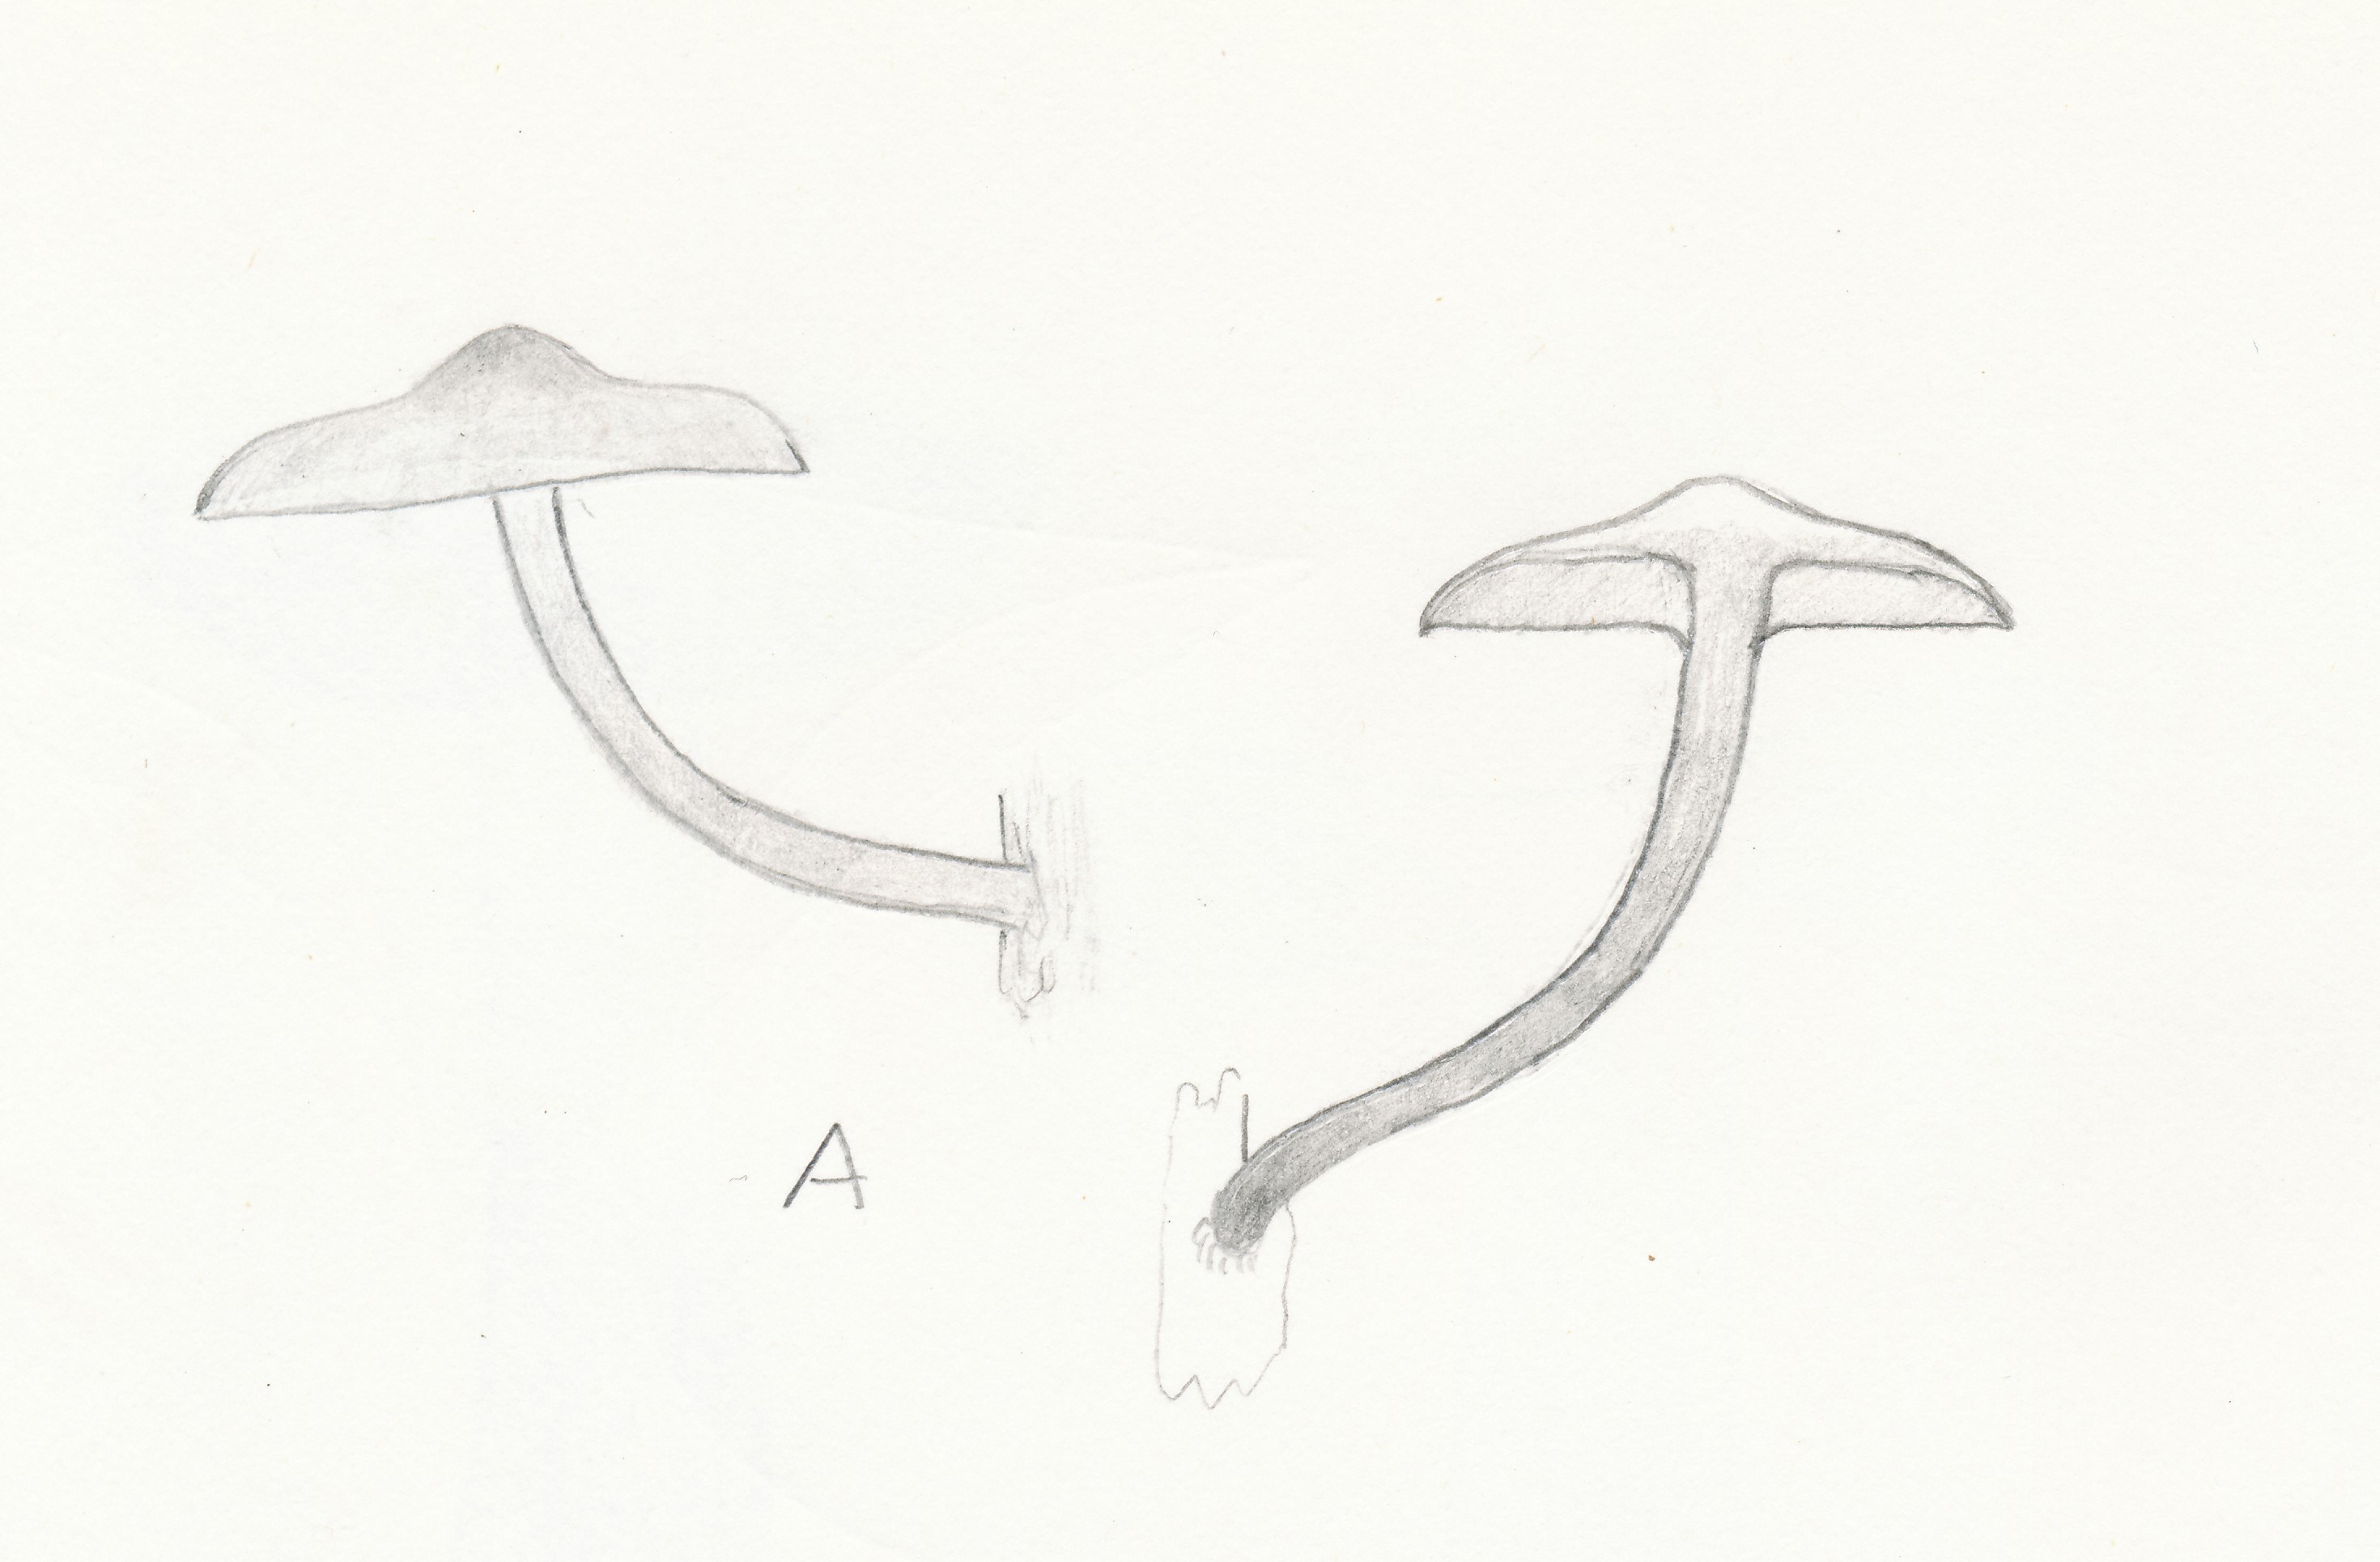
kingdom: Fungi
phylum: Basidiomycota
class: Agaricomycetes
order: Agaricales
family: Strophariaceae
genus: Pholiota
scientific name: Pholiota conissans
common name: pile-skælhat
